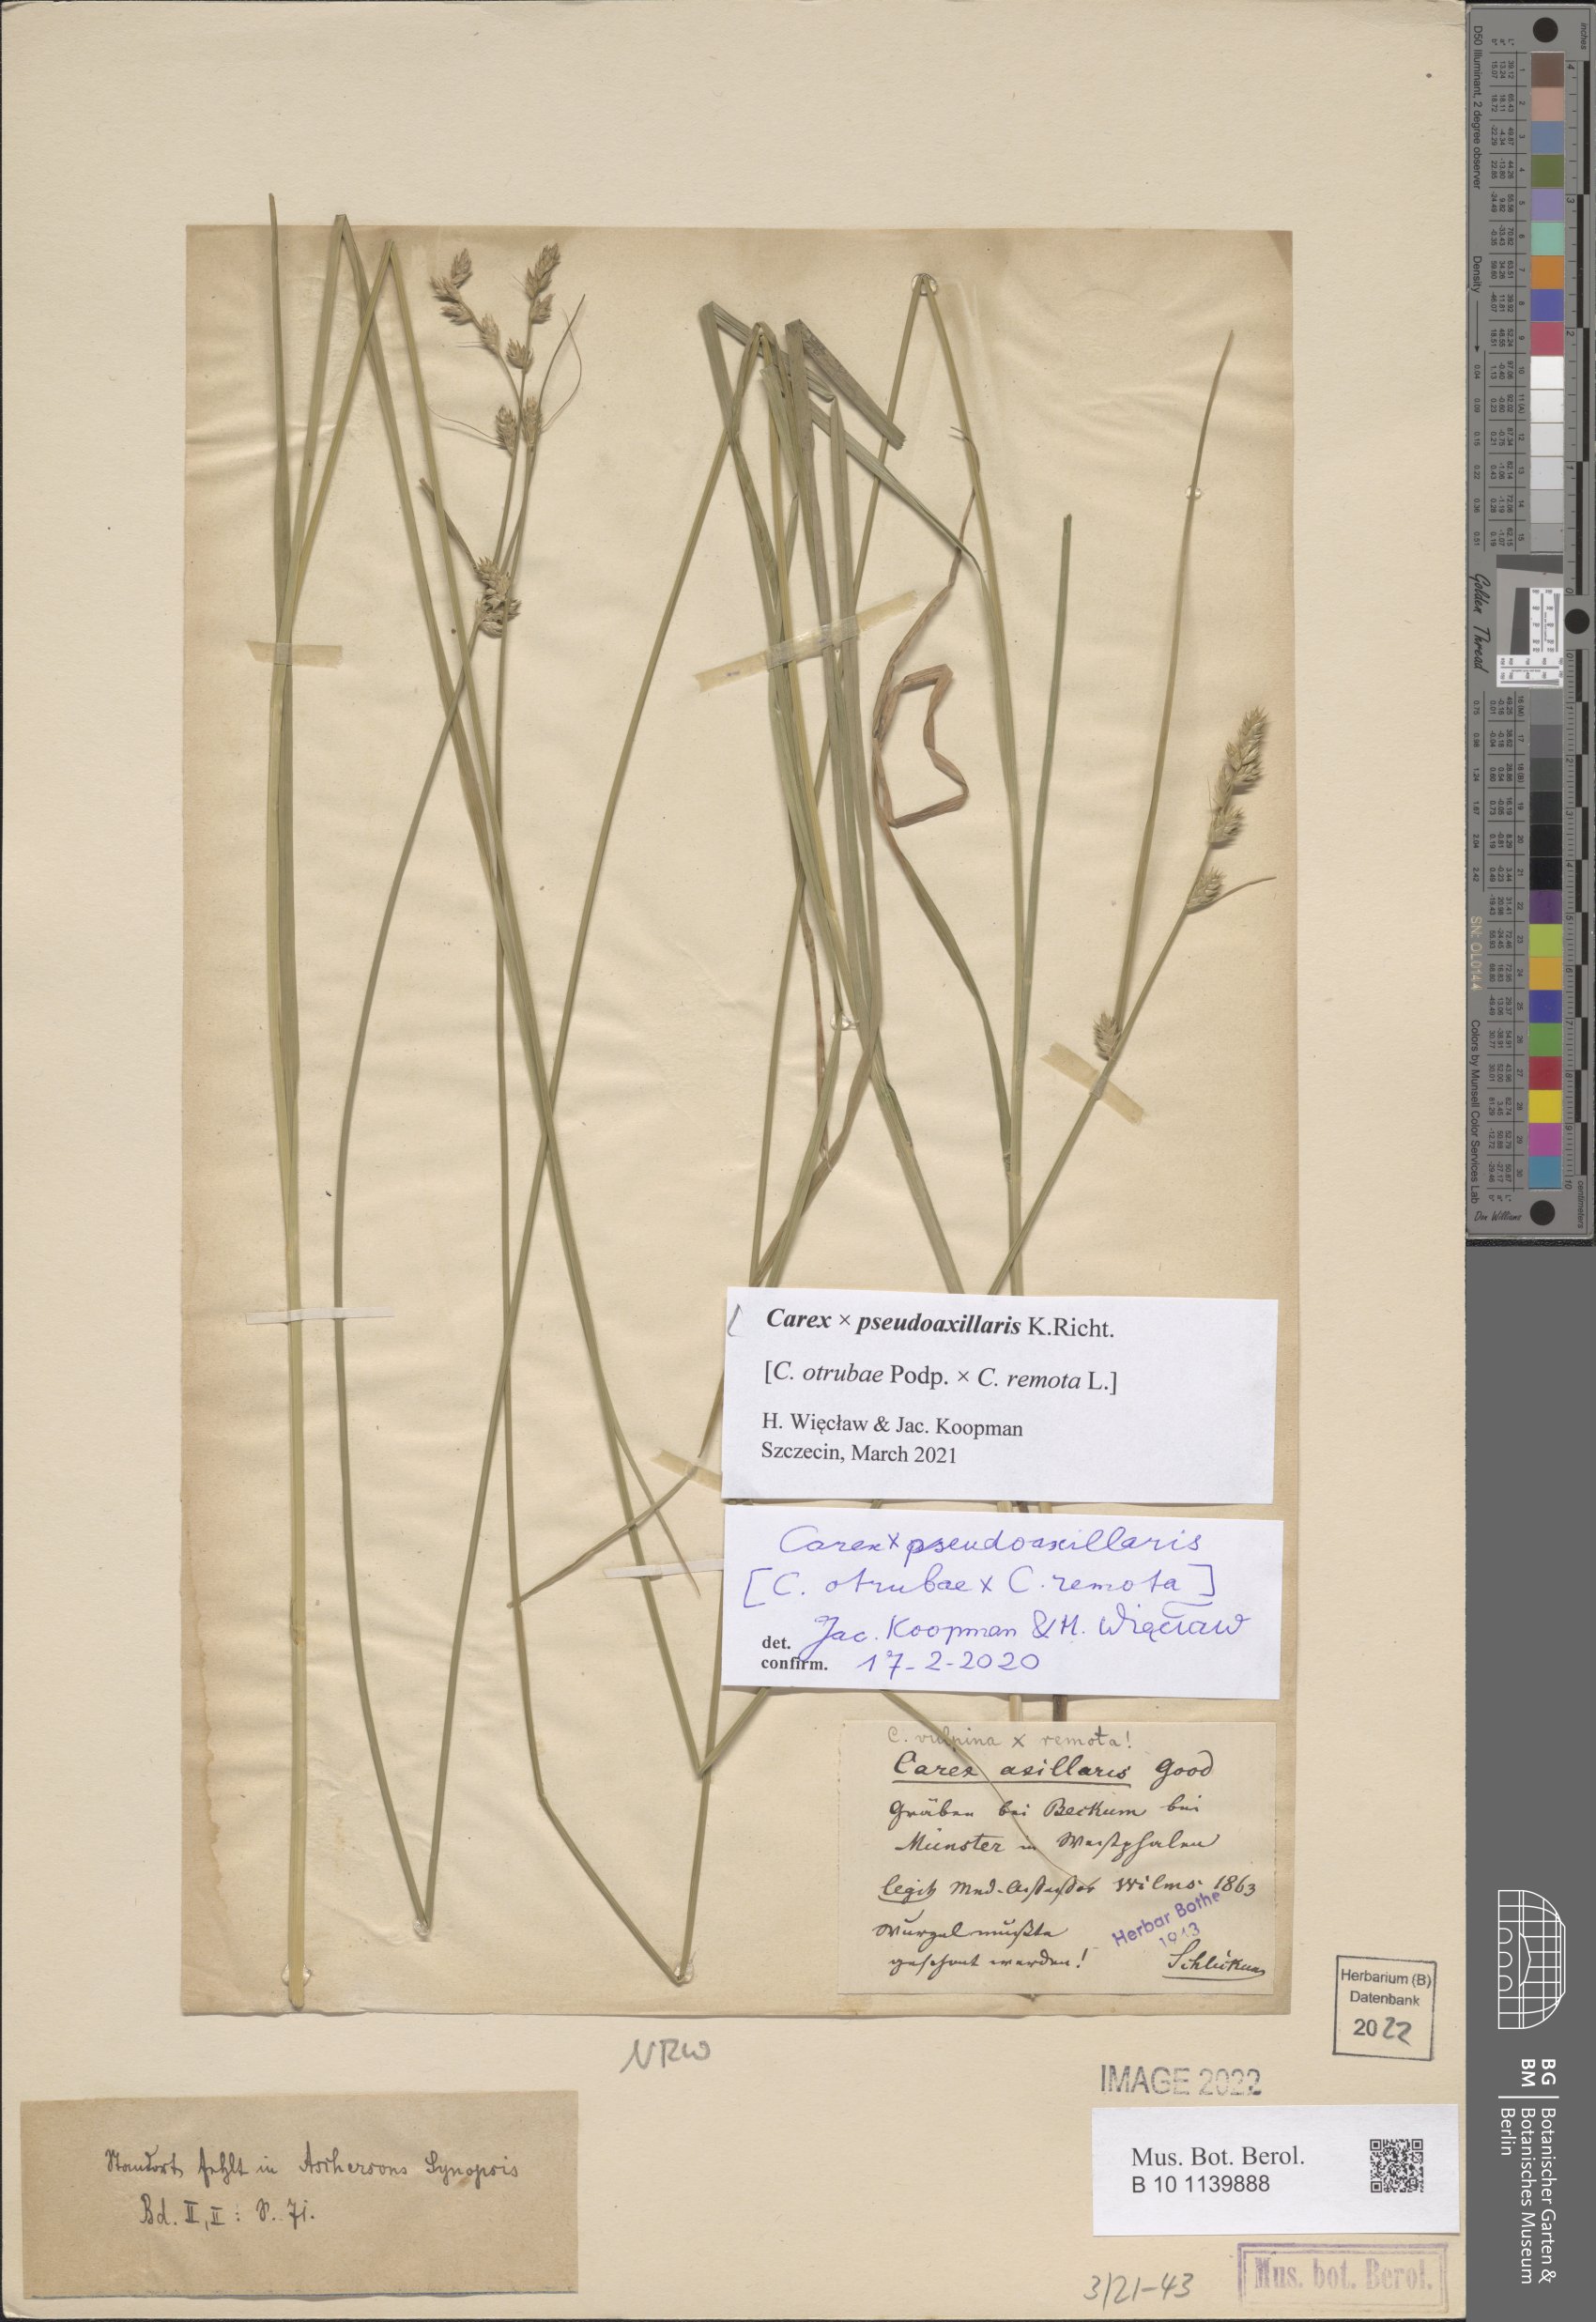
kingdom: Plantae
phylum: Tracheophyta
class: Liliopsida
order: Poales
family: Cyperaceae
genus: Carex
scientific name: Carex pseudoaxillaris
